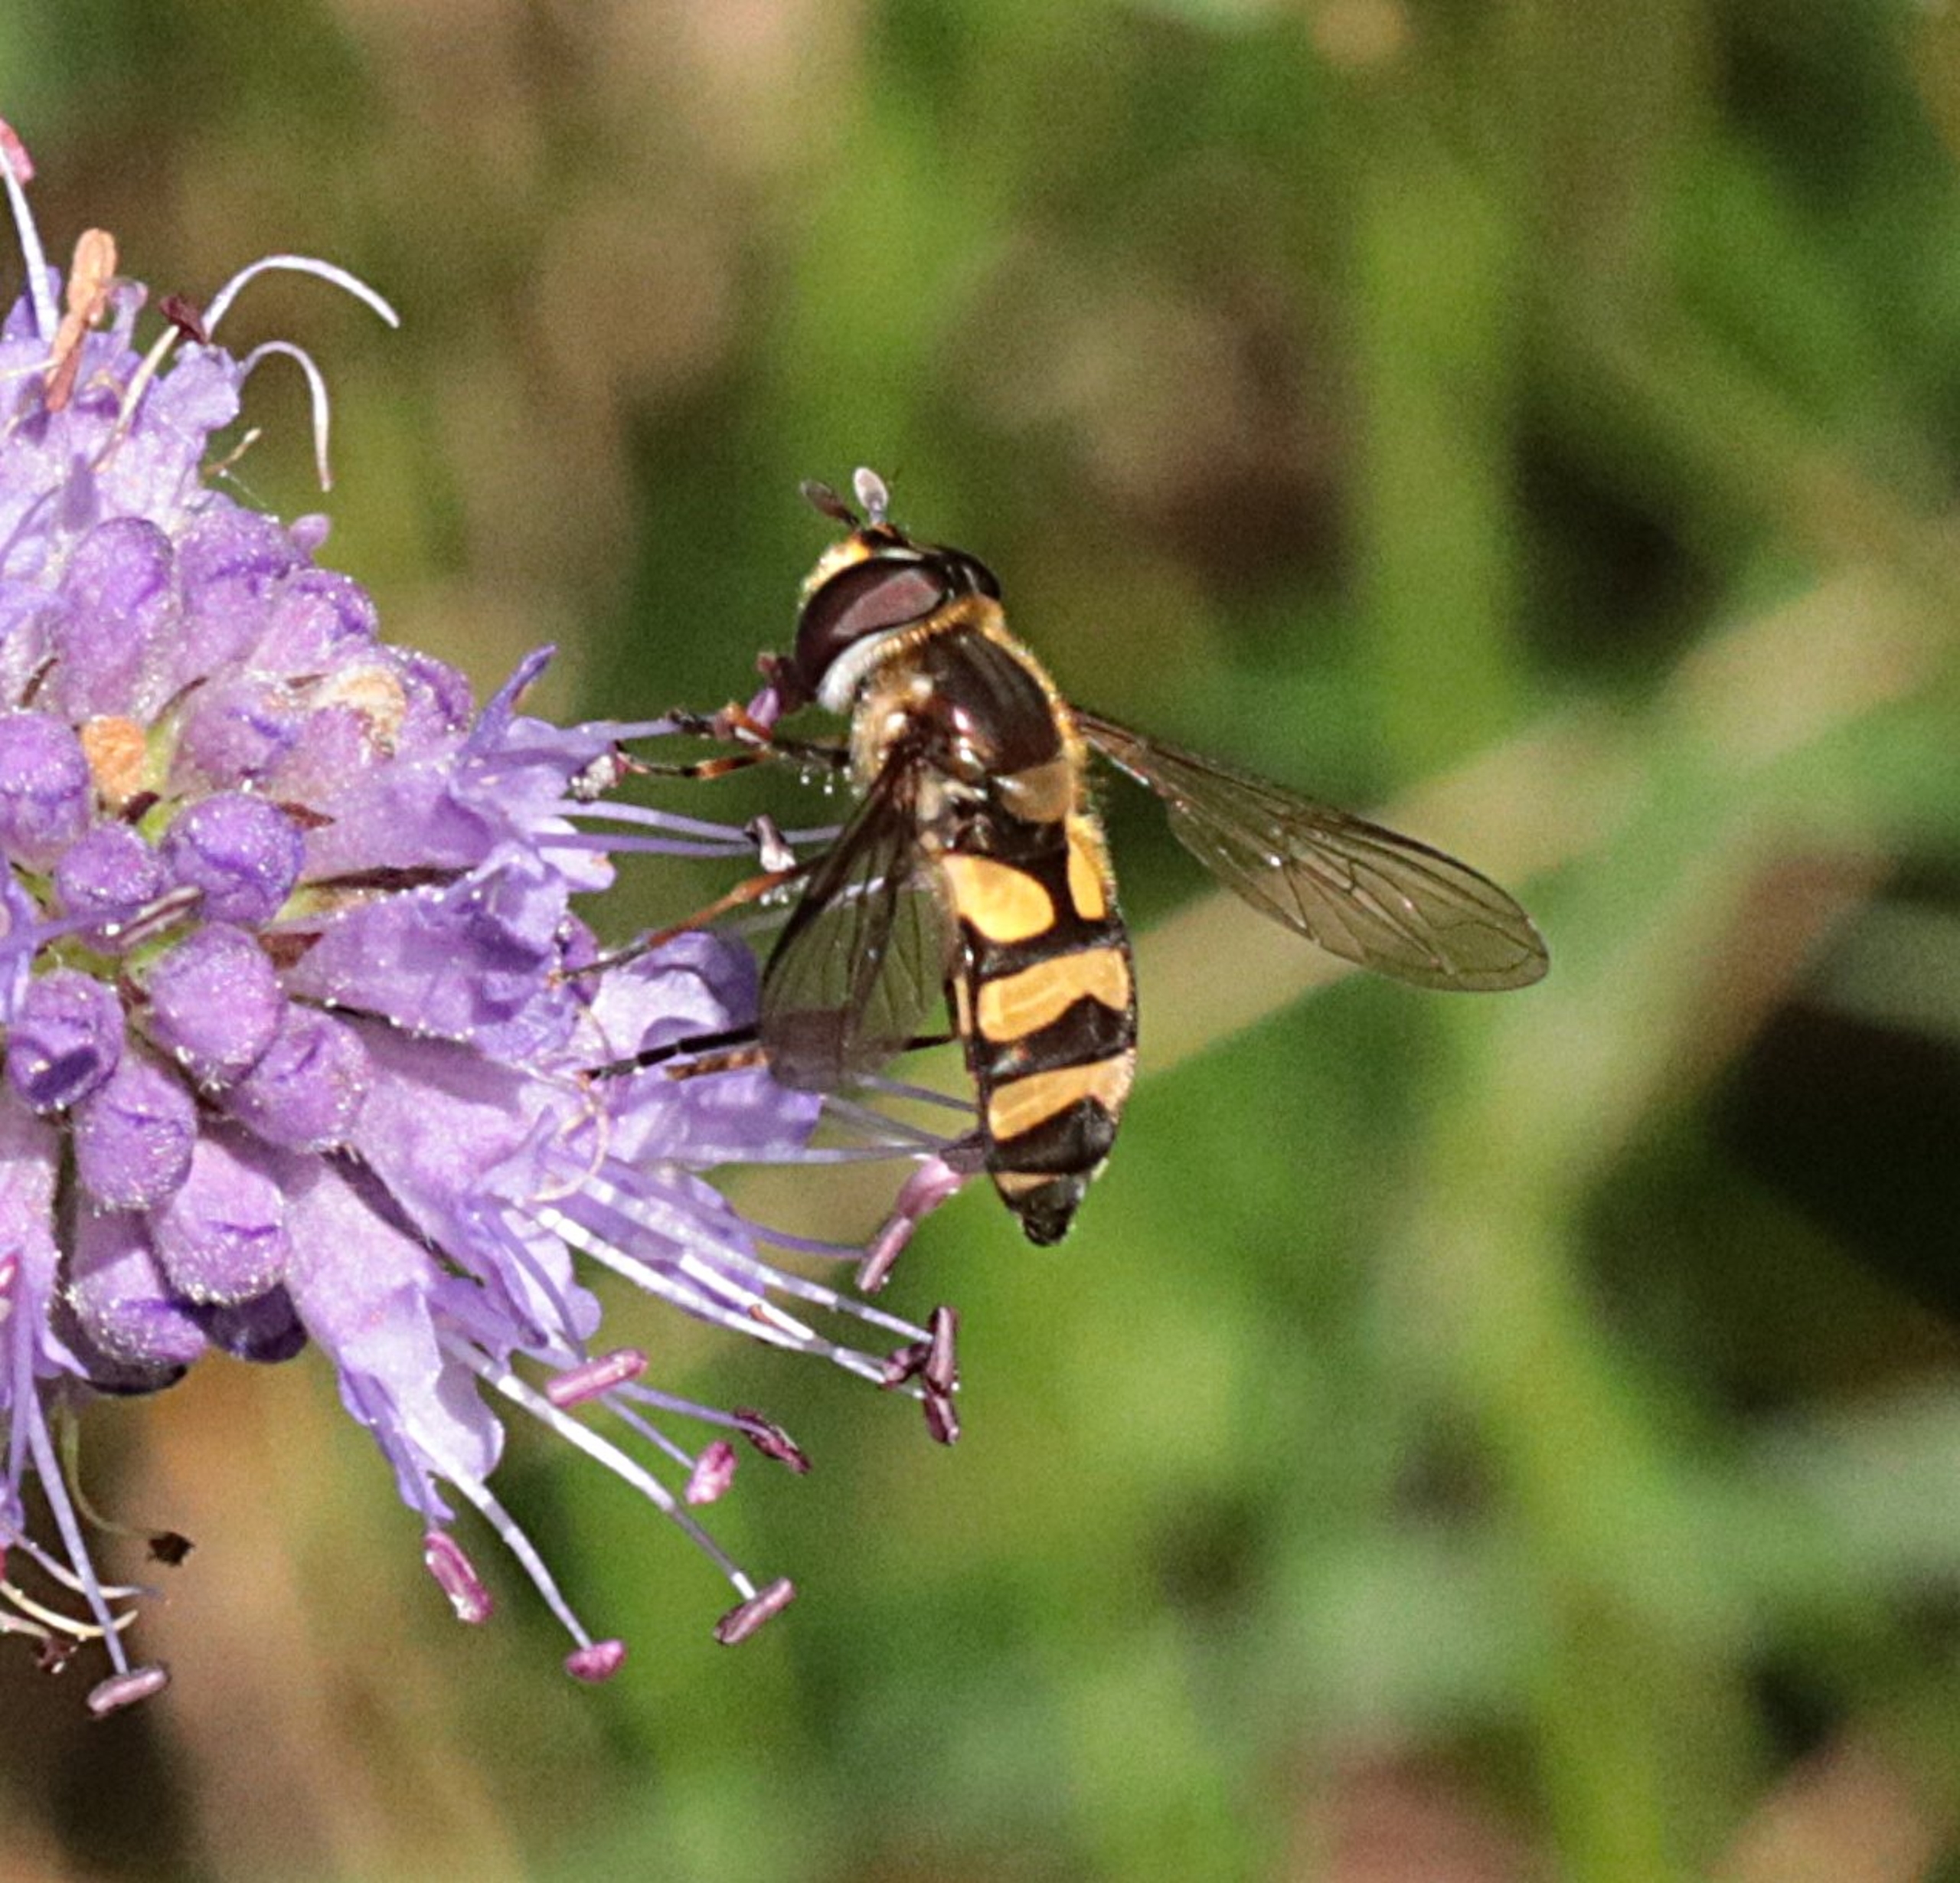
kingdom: Animalia
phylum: Arthropoda
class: Insecta
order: Diptera
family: Syrphidae
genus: Didea
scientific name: Didea fasciata
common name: Lys buesvirreflue
